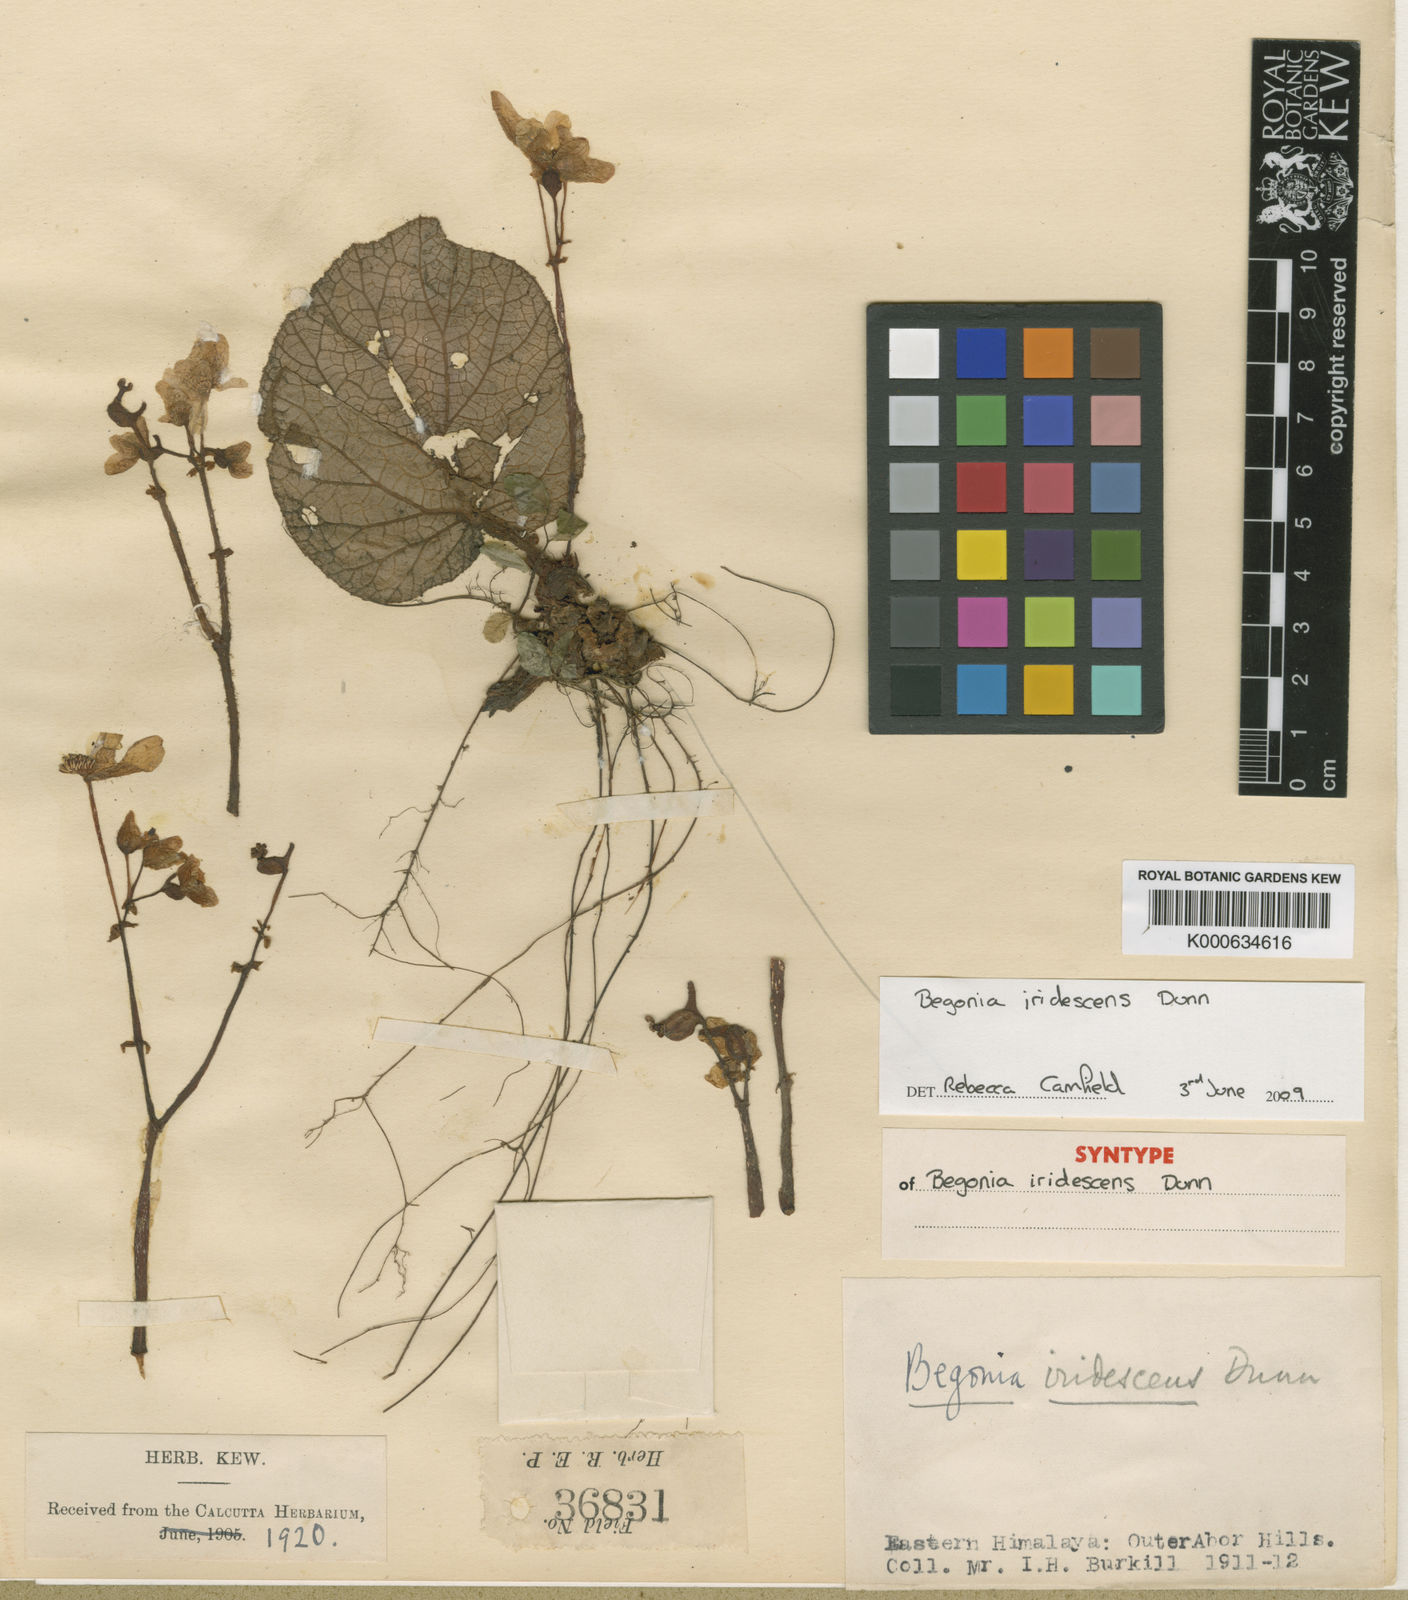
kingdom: Plantae
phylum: Tracheophyta
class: Magnoliopsida
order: Cucurbitales
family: Begoniaceae
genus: Begonia
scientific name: Begonia iridescens
